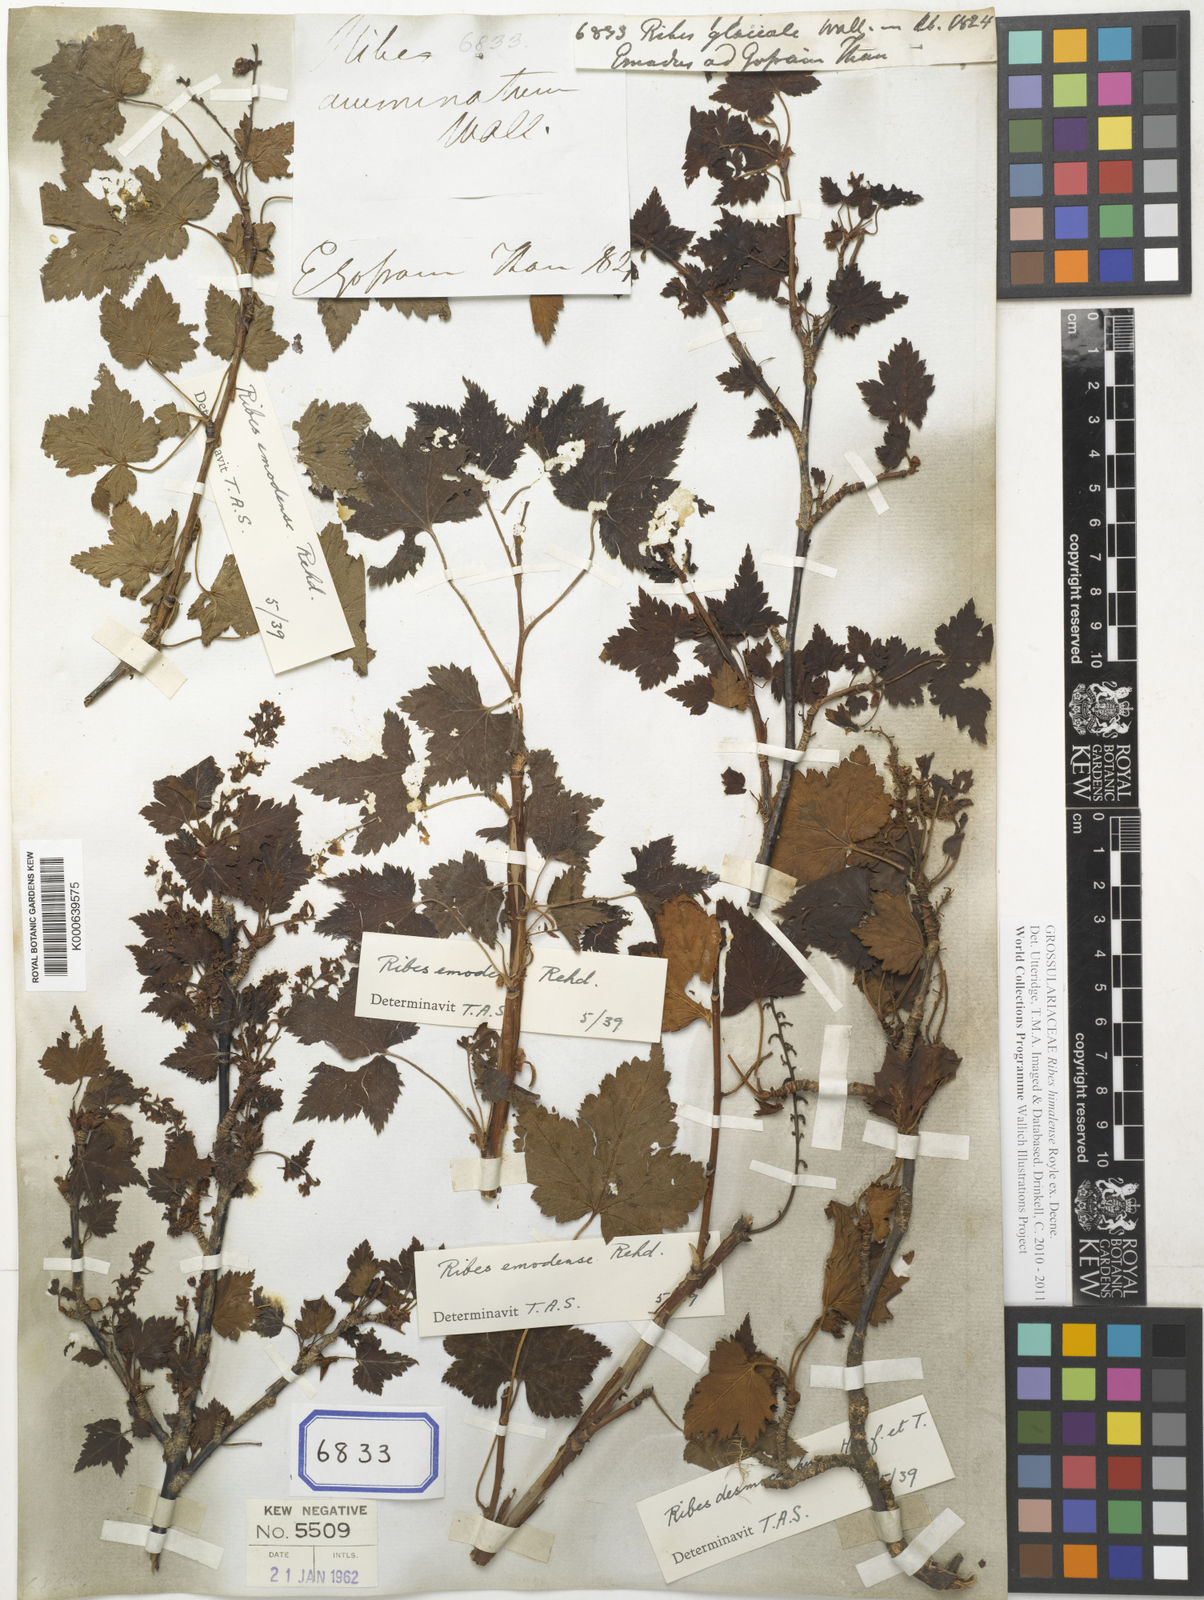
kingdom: Plantae
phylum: Tracheophyta
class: Magnoliopsida
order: Saxifragales
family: Grossulariaceae
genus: Ribes
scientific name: Ribes glaciale
